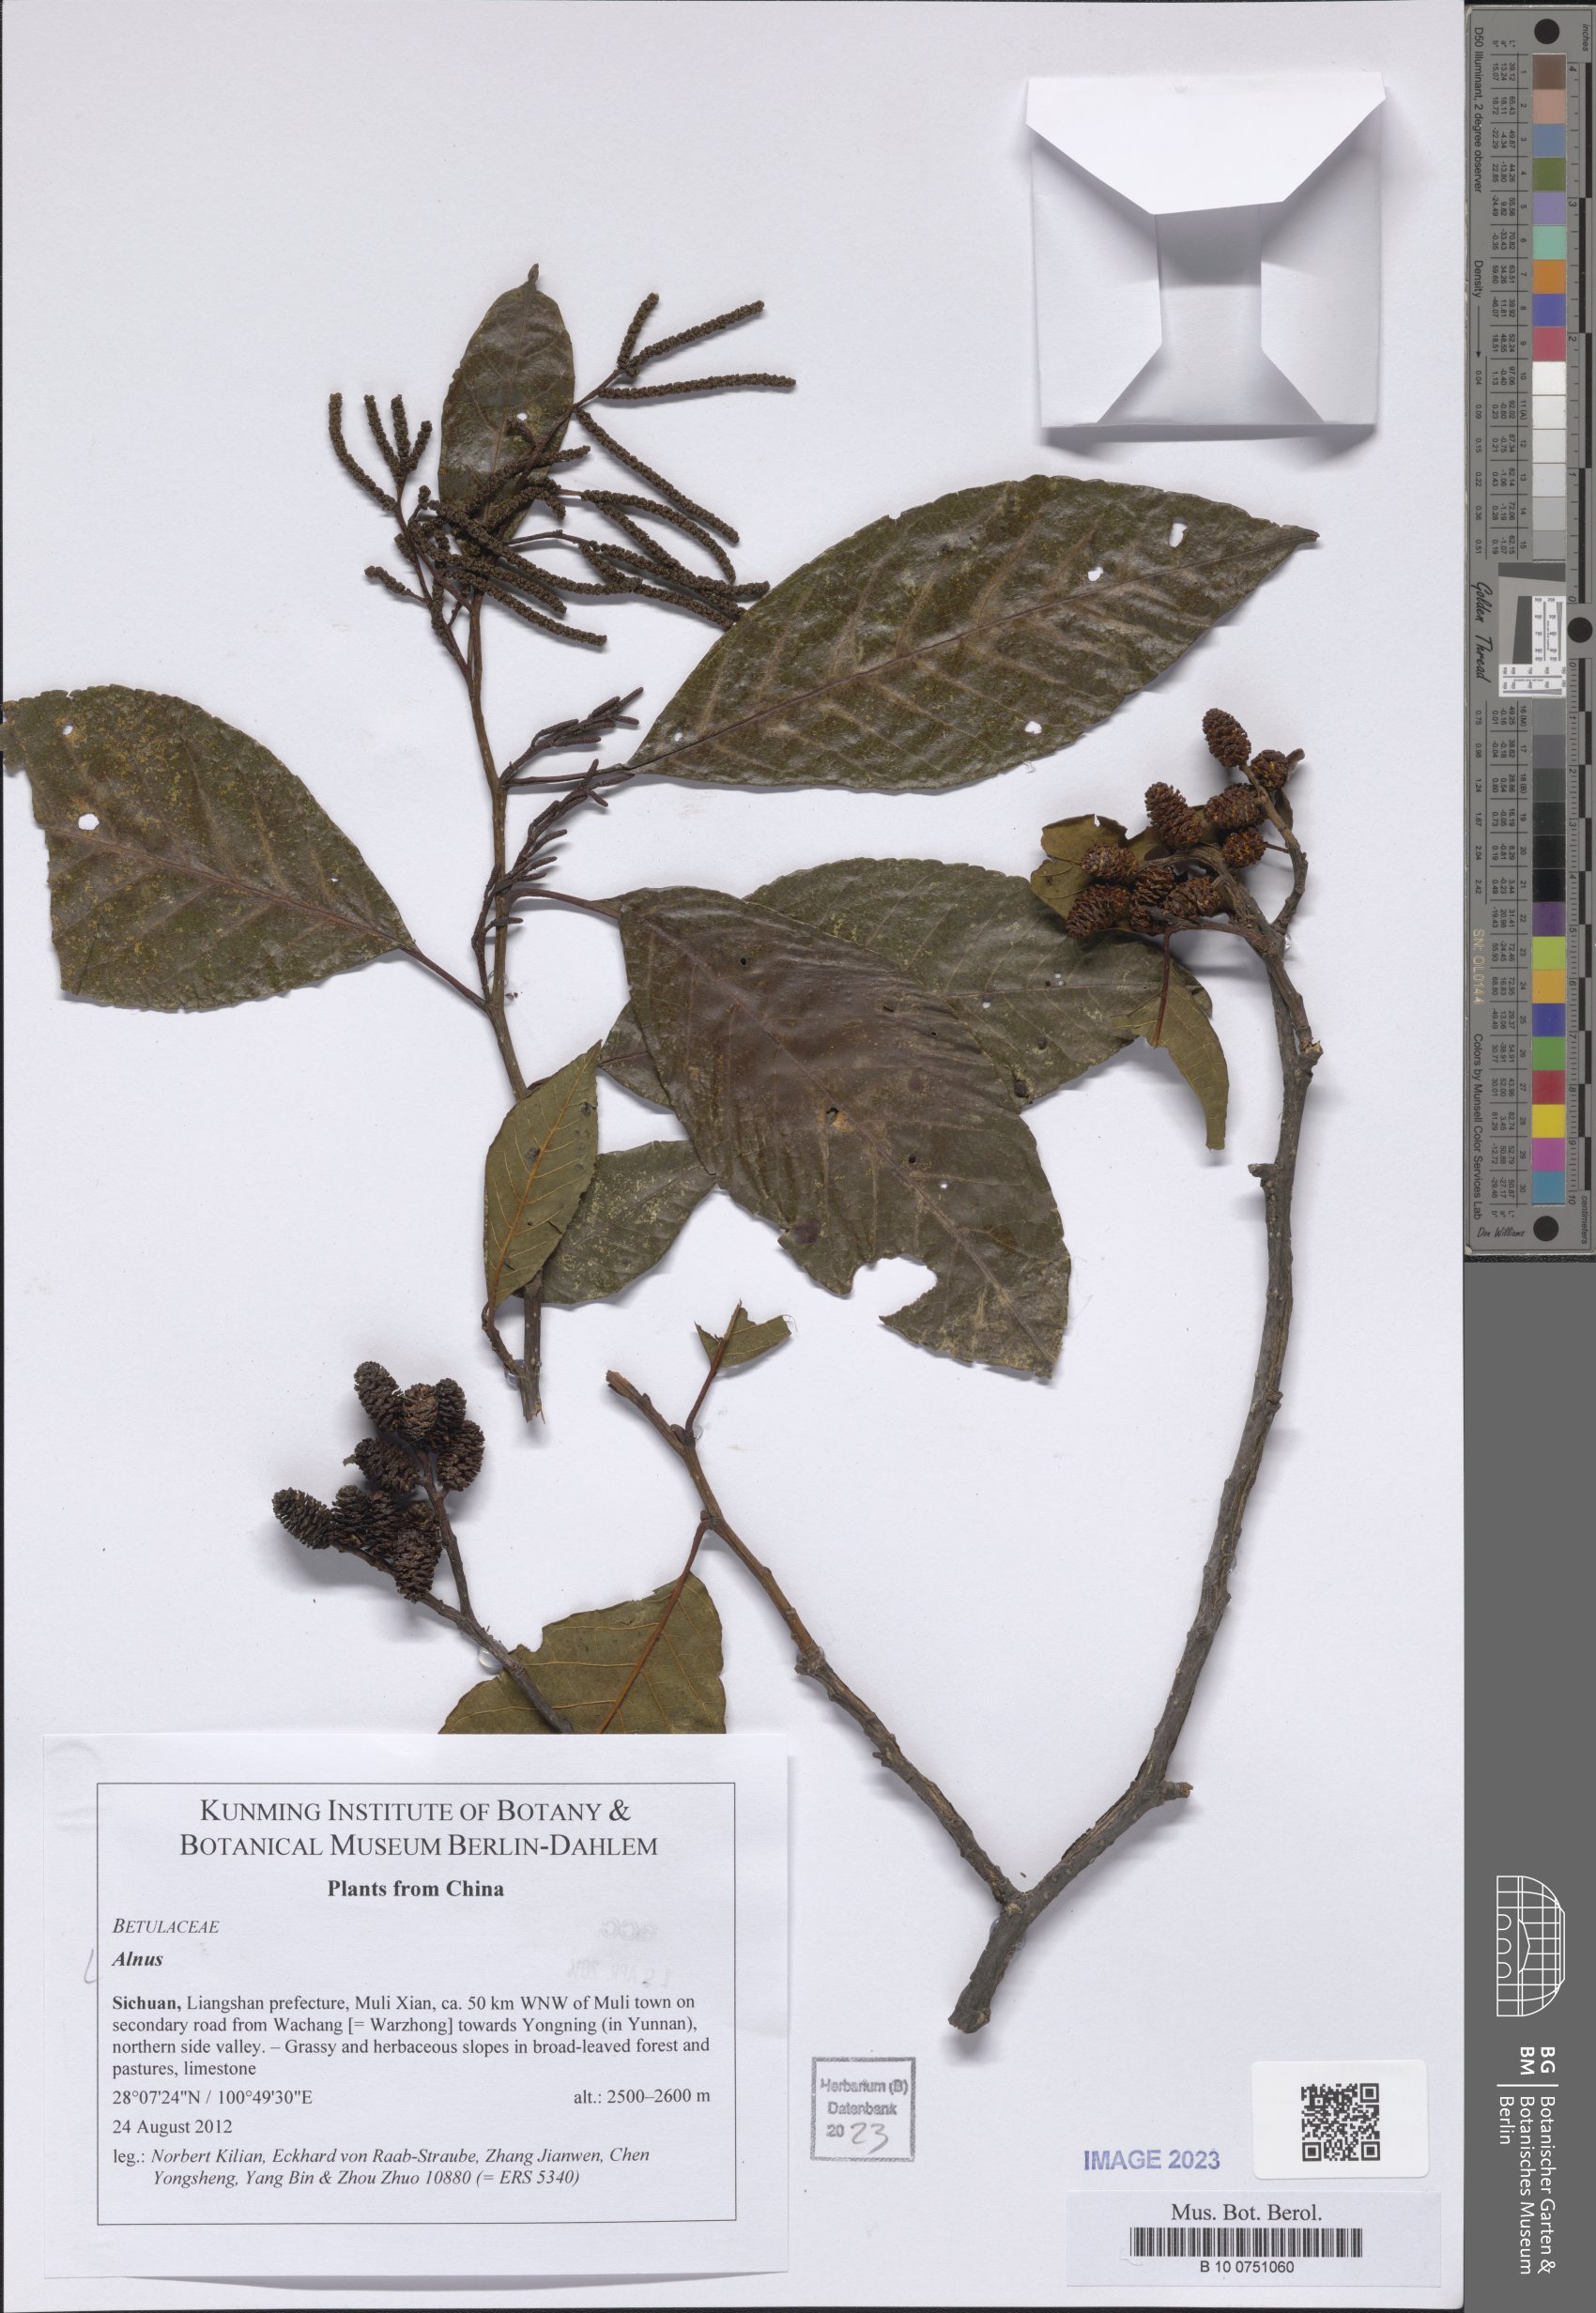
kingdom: Plantae
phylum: Tracheophyta
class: Magnoliopsida
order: Fagales
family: Betulaceae
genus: Alnus
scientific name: Alnus
